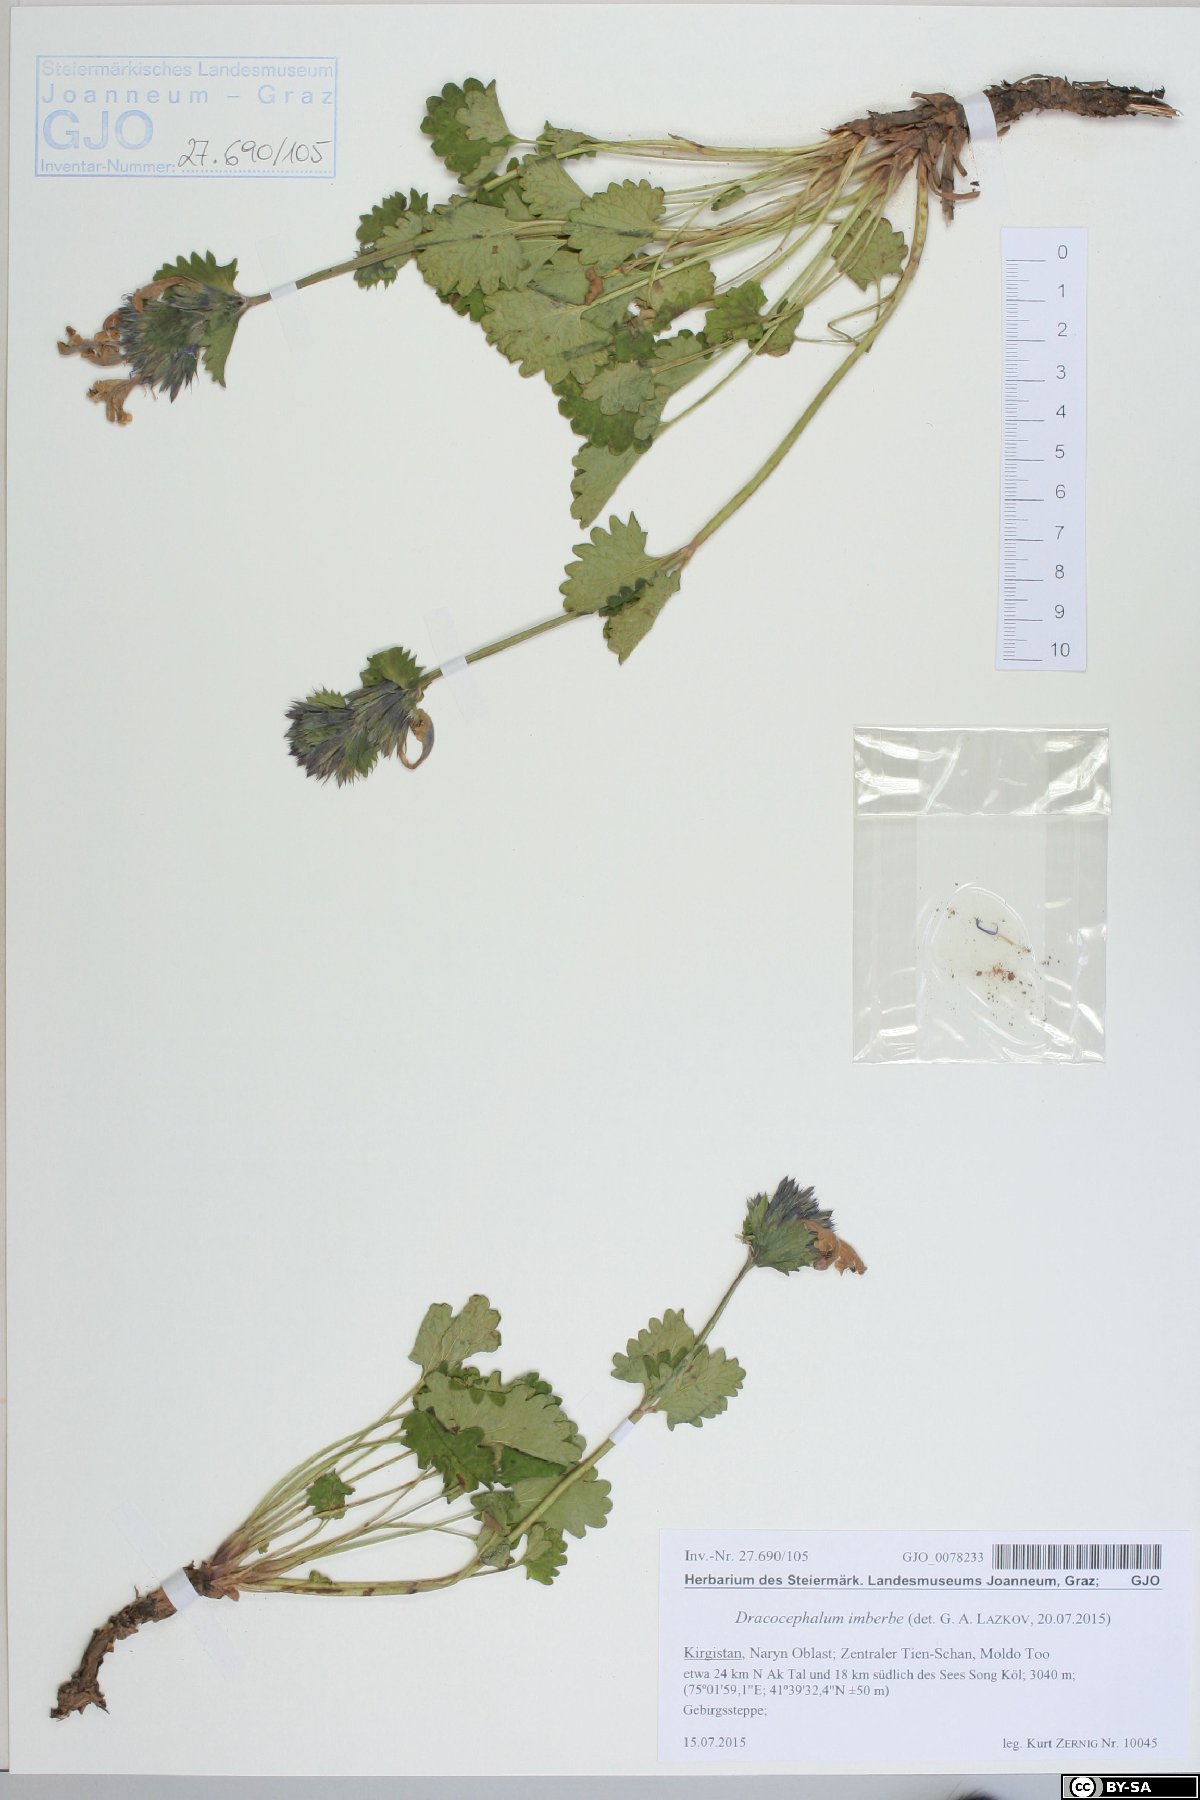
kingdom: Plantae
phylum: Tracheophyta
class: Magnoliopsida
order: Lamiales
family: Lamiaceae
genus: Dracocephalum
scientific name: Dracocephalum imberbe
